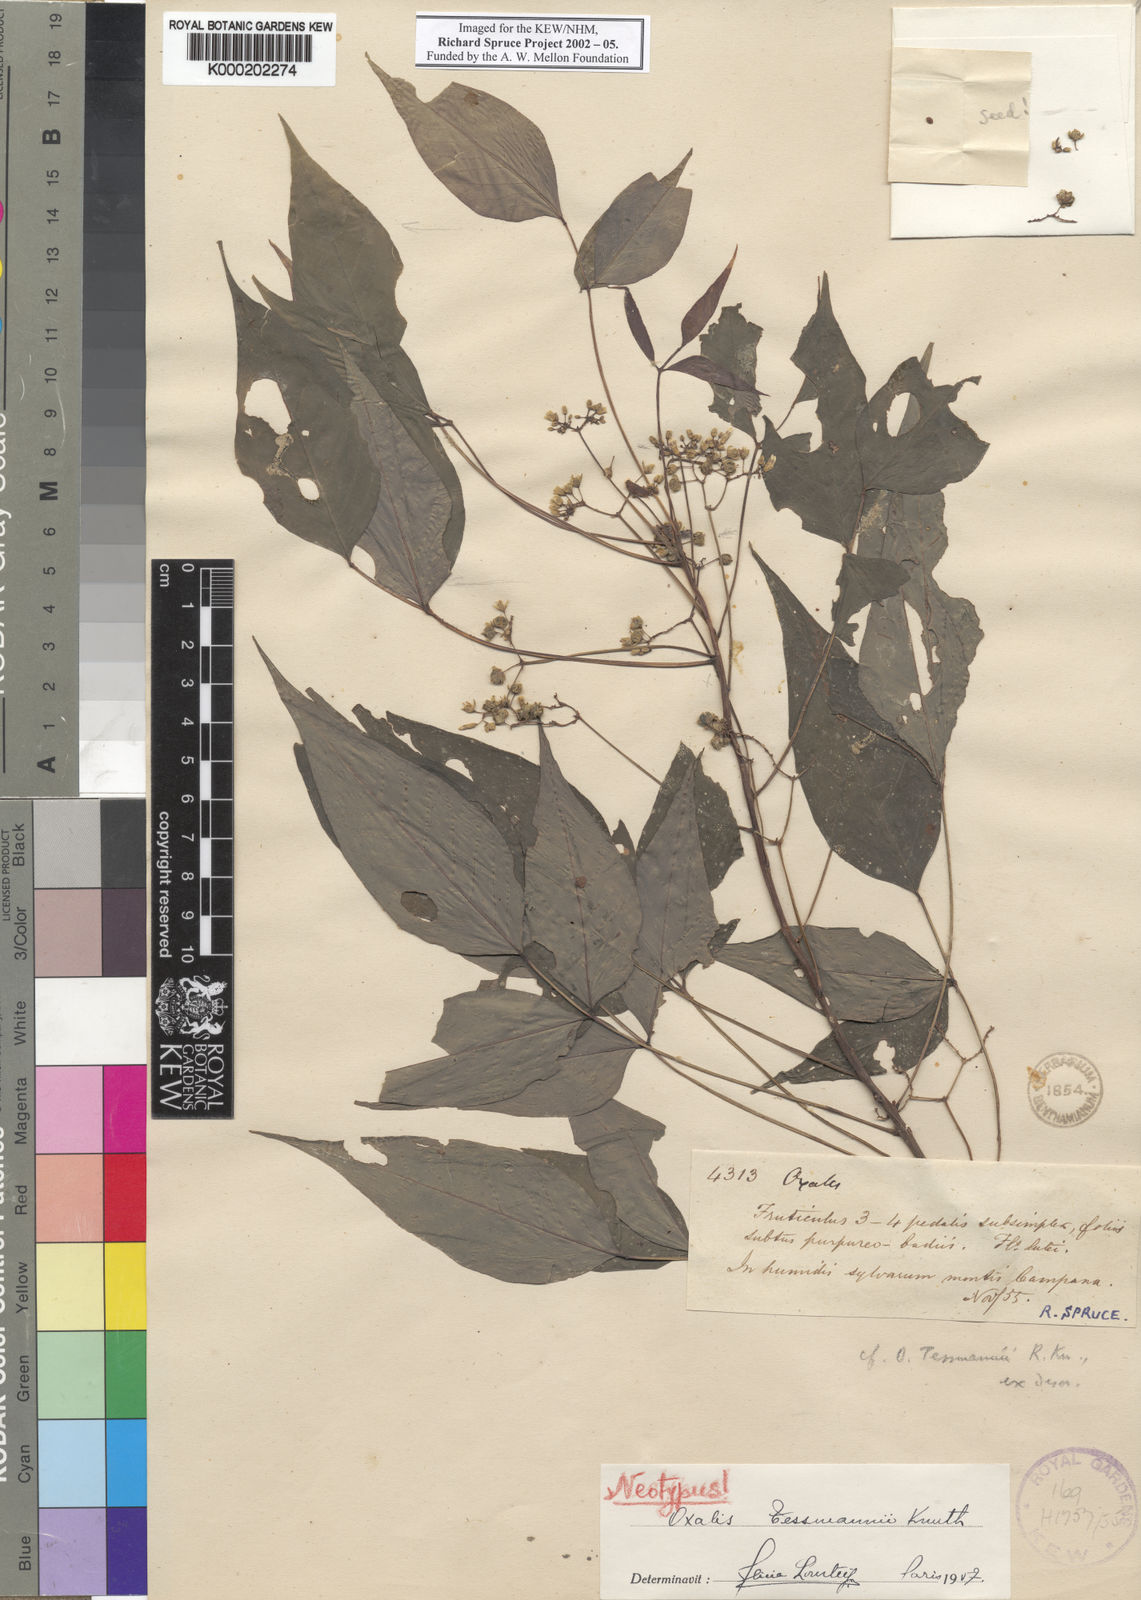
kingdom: Plantae
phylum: Tracheophyta
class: Magnoliopsida
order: Oxalidales
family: Oxalidaceae
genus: Oxalis
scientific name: Oxalis tessmannii
